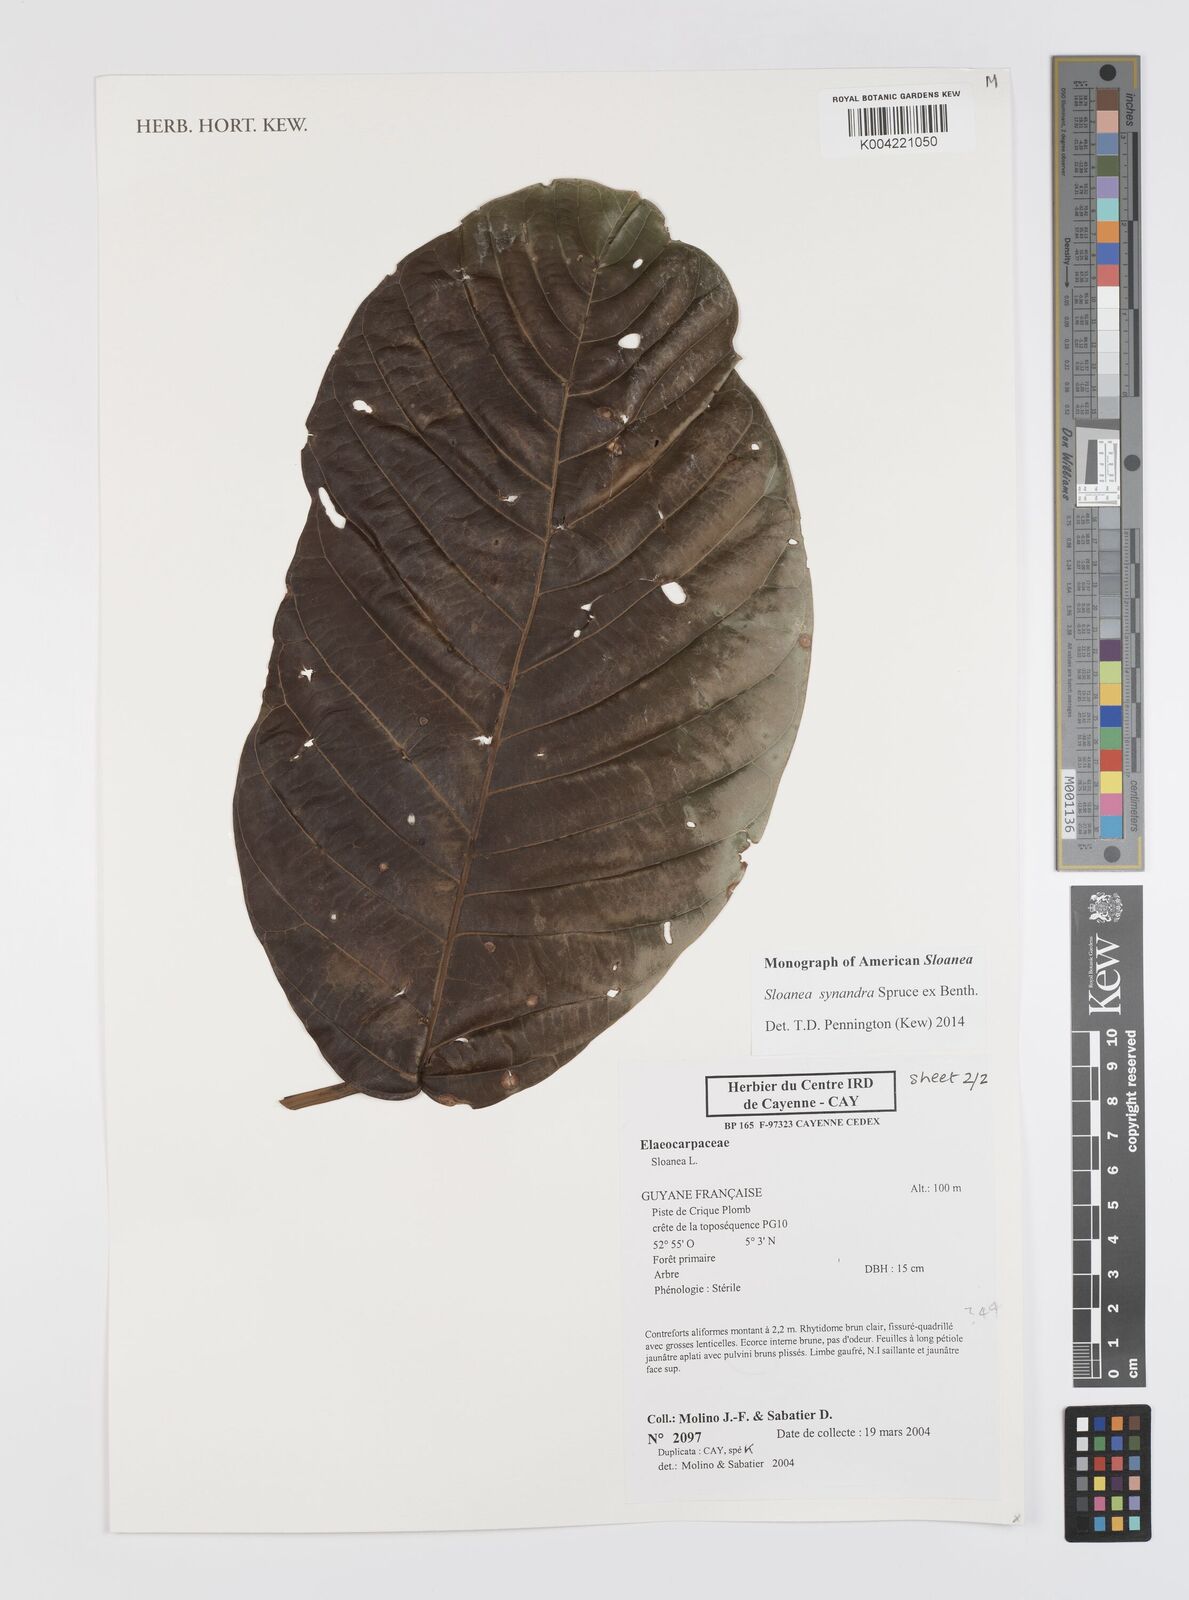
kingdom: Plantae
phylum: Tracheophyta
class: Magnoliopsida
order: Oxalidales
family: Elaeocarpaceae
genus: Sloanea
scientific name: Sloanea synandra
